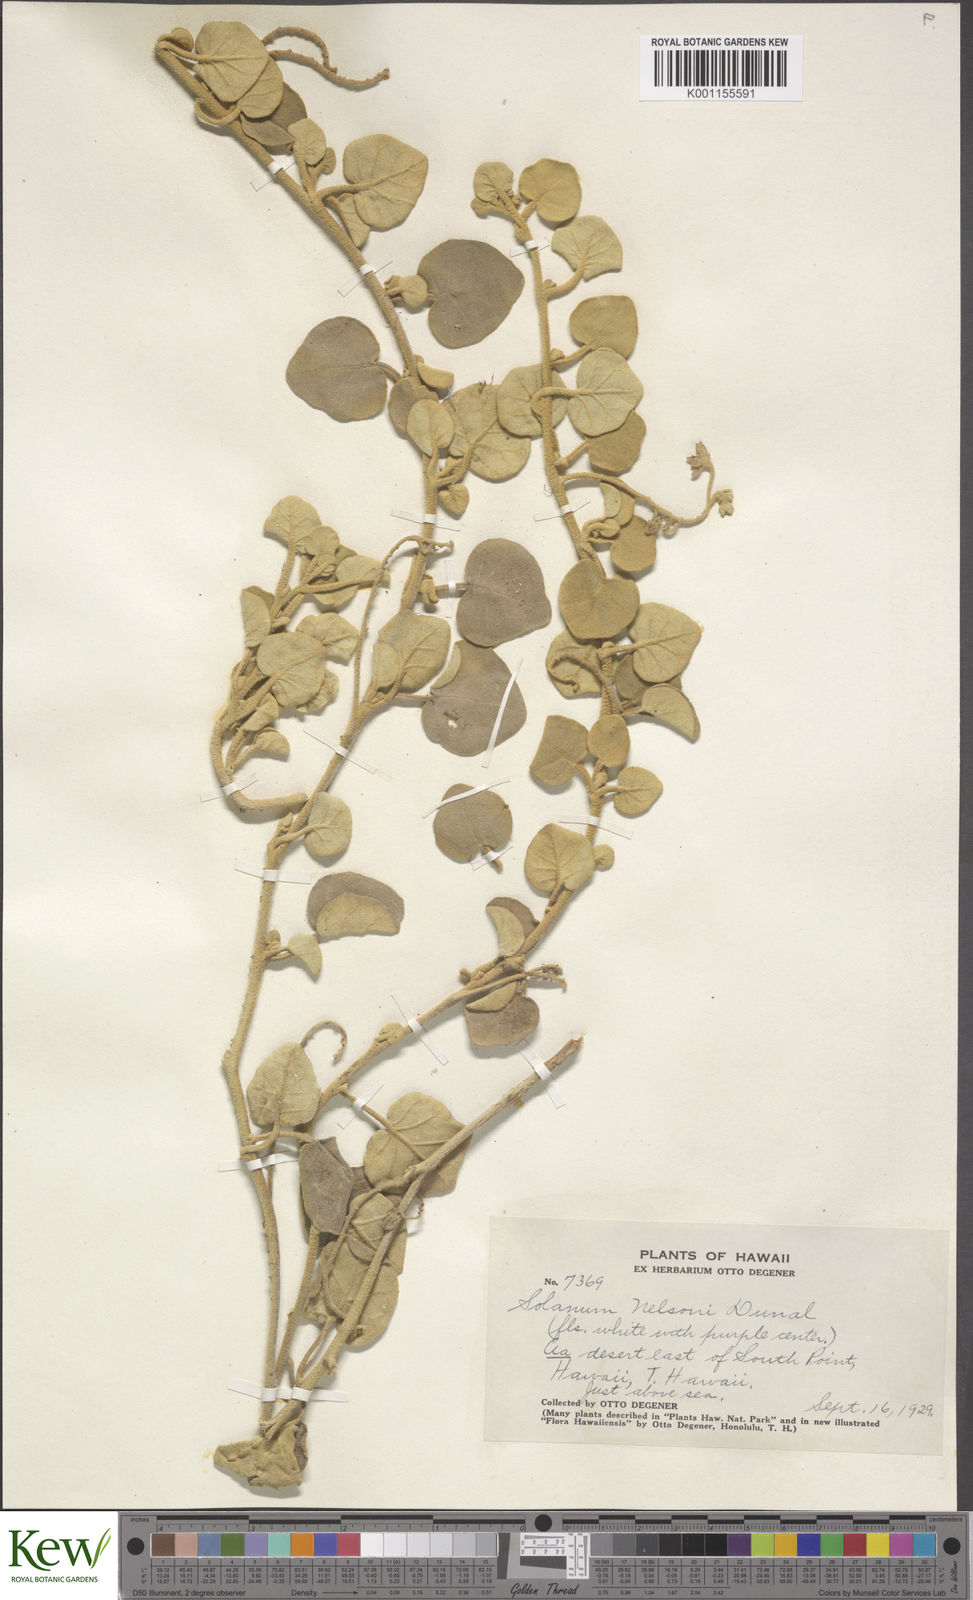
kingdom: Plantae
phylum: Tracheophyta
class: Magnoliopsida
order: Solanales
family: Solanaceae
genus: Solanum
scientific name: Solanum nelsonii
